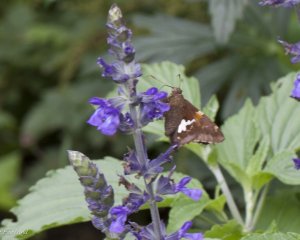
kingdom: Animalia
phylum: Arthropoda
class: Insecta
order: Lepidoptera
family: Hesperiidae
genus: Epargyreus
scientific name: Epargyreus clarus
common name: Silver-spotted Skipper
